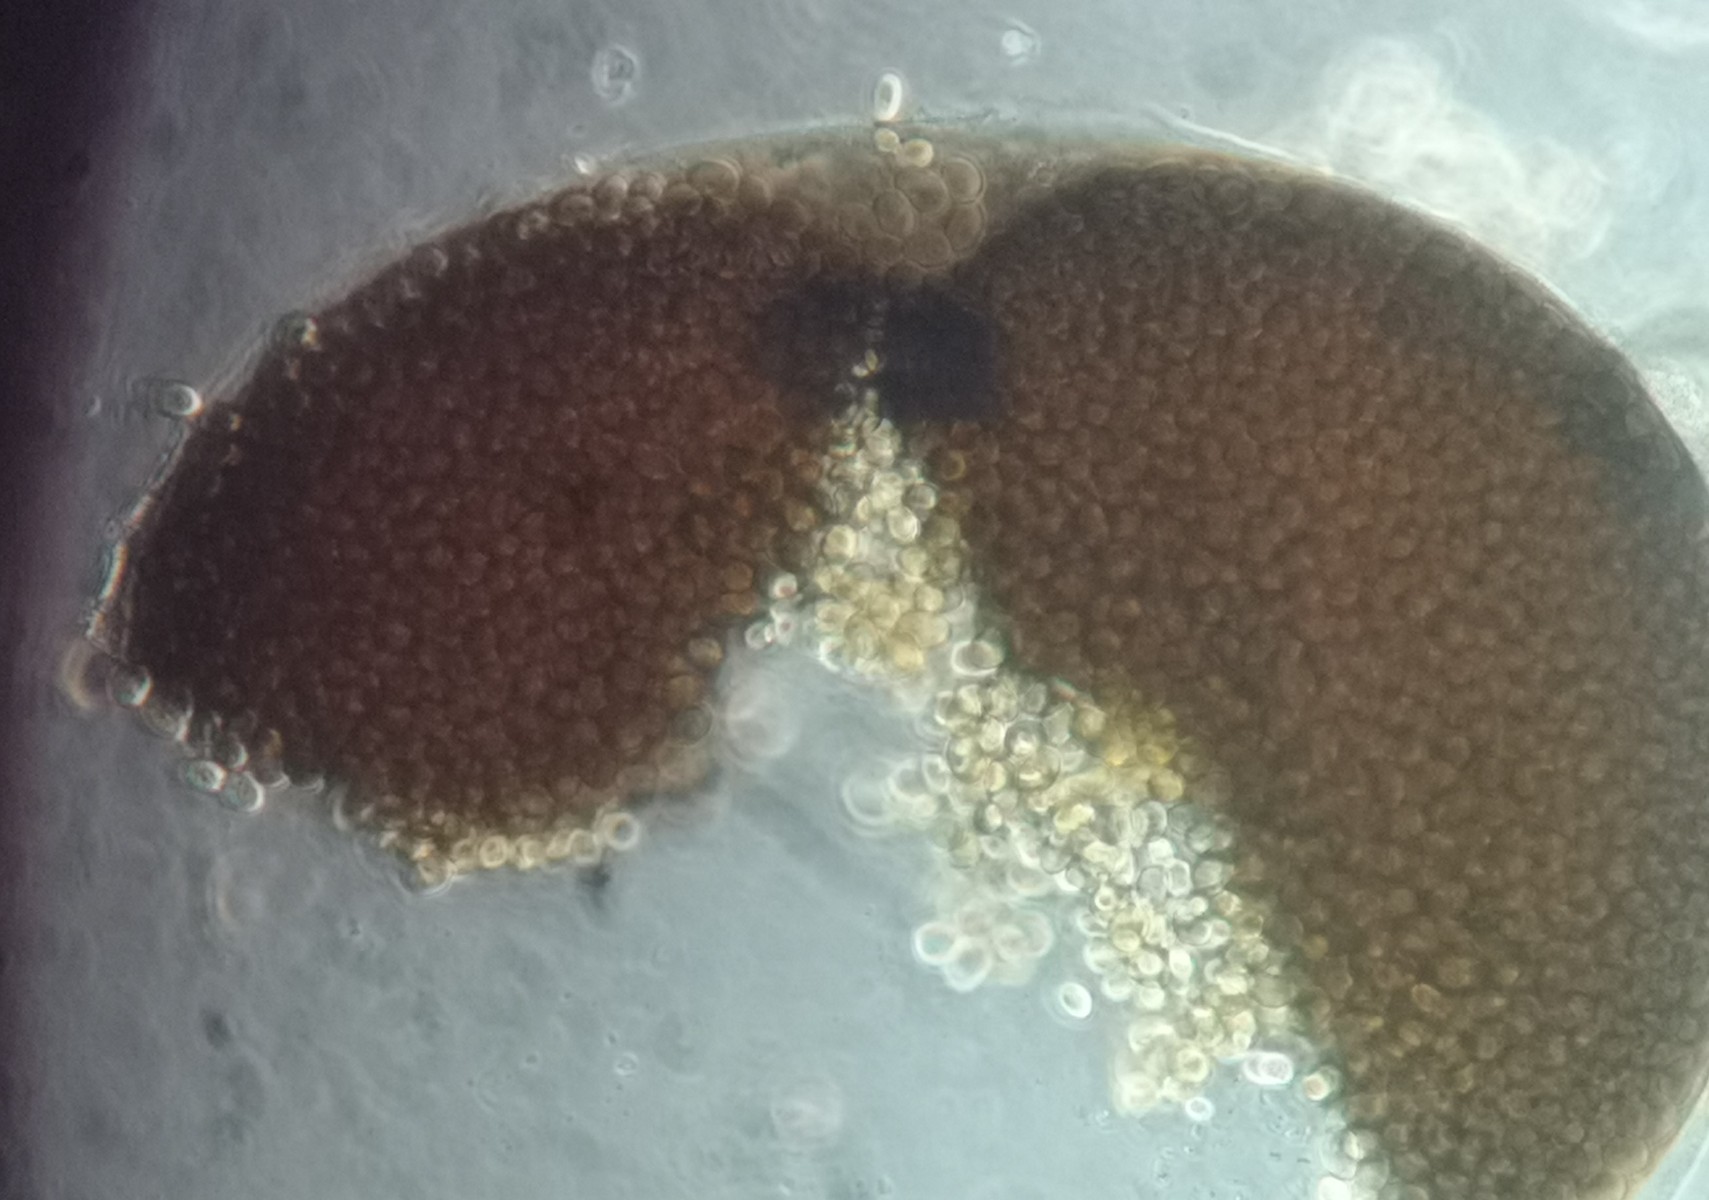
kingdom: Fungi
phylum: Mucoromycota
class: Mucoromycetes
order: Mucorales
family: Pilobolaceae
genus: Pilobolus
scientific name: Pilobolus kleinii
